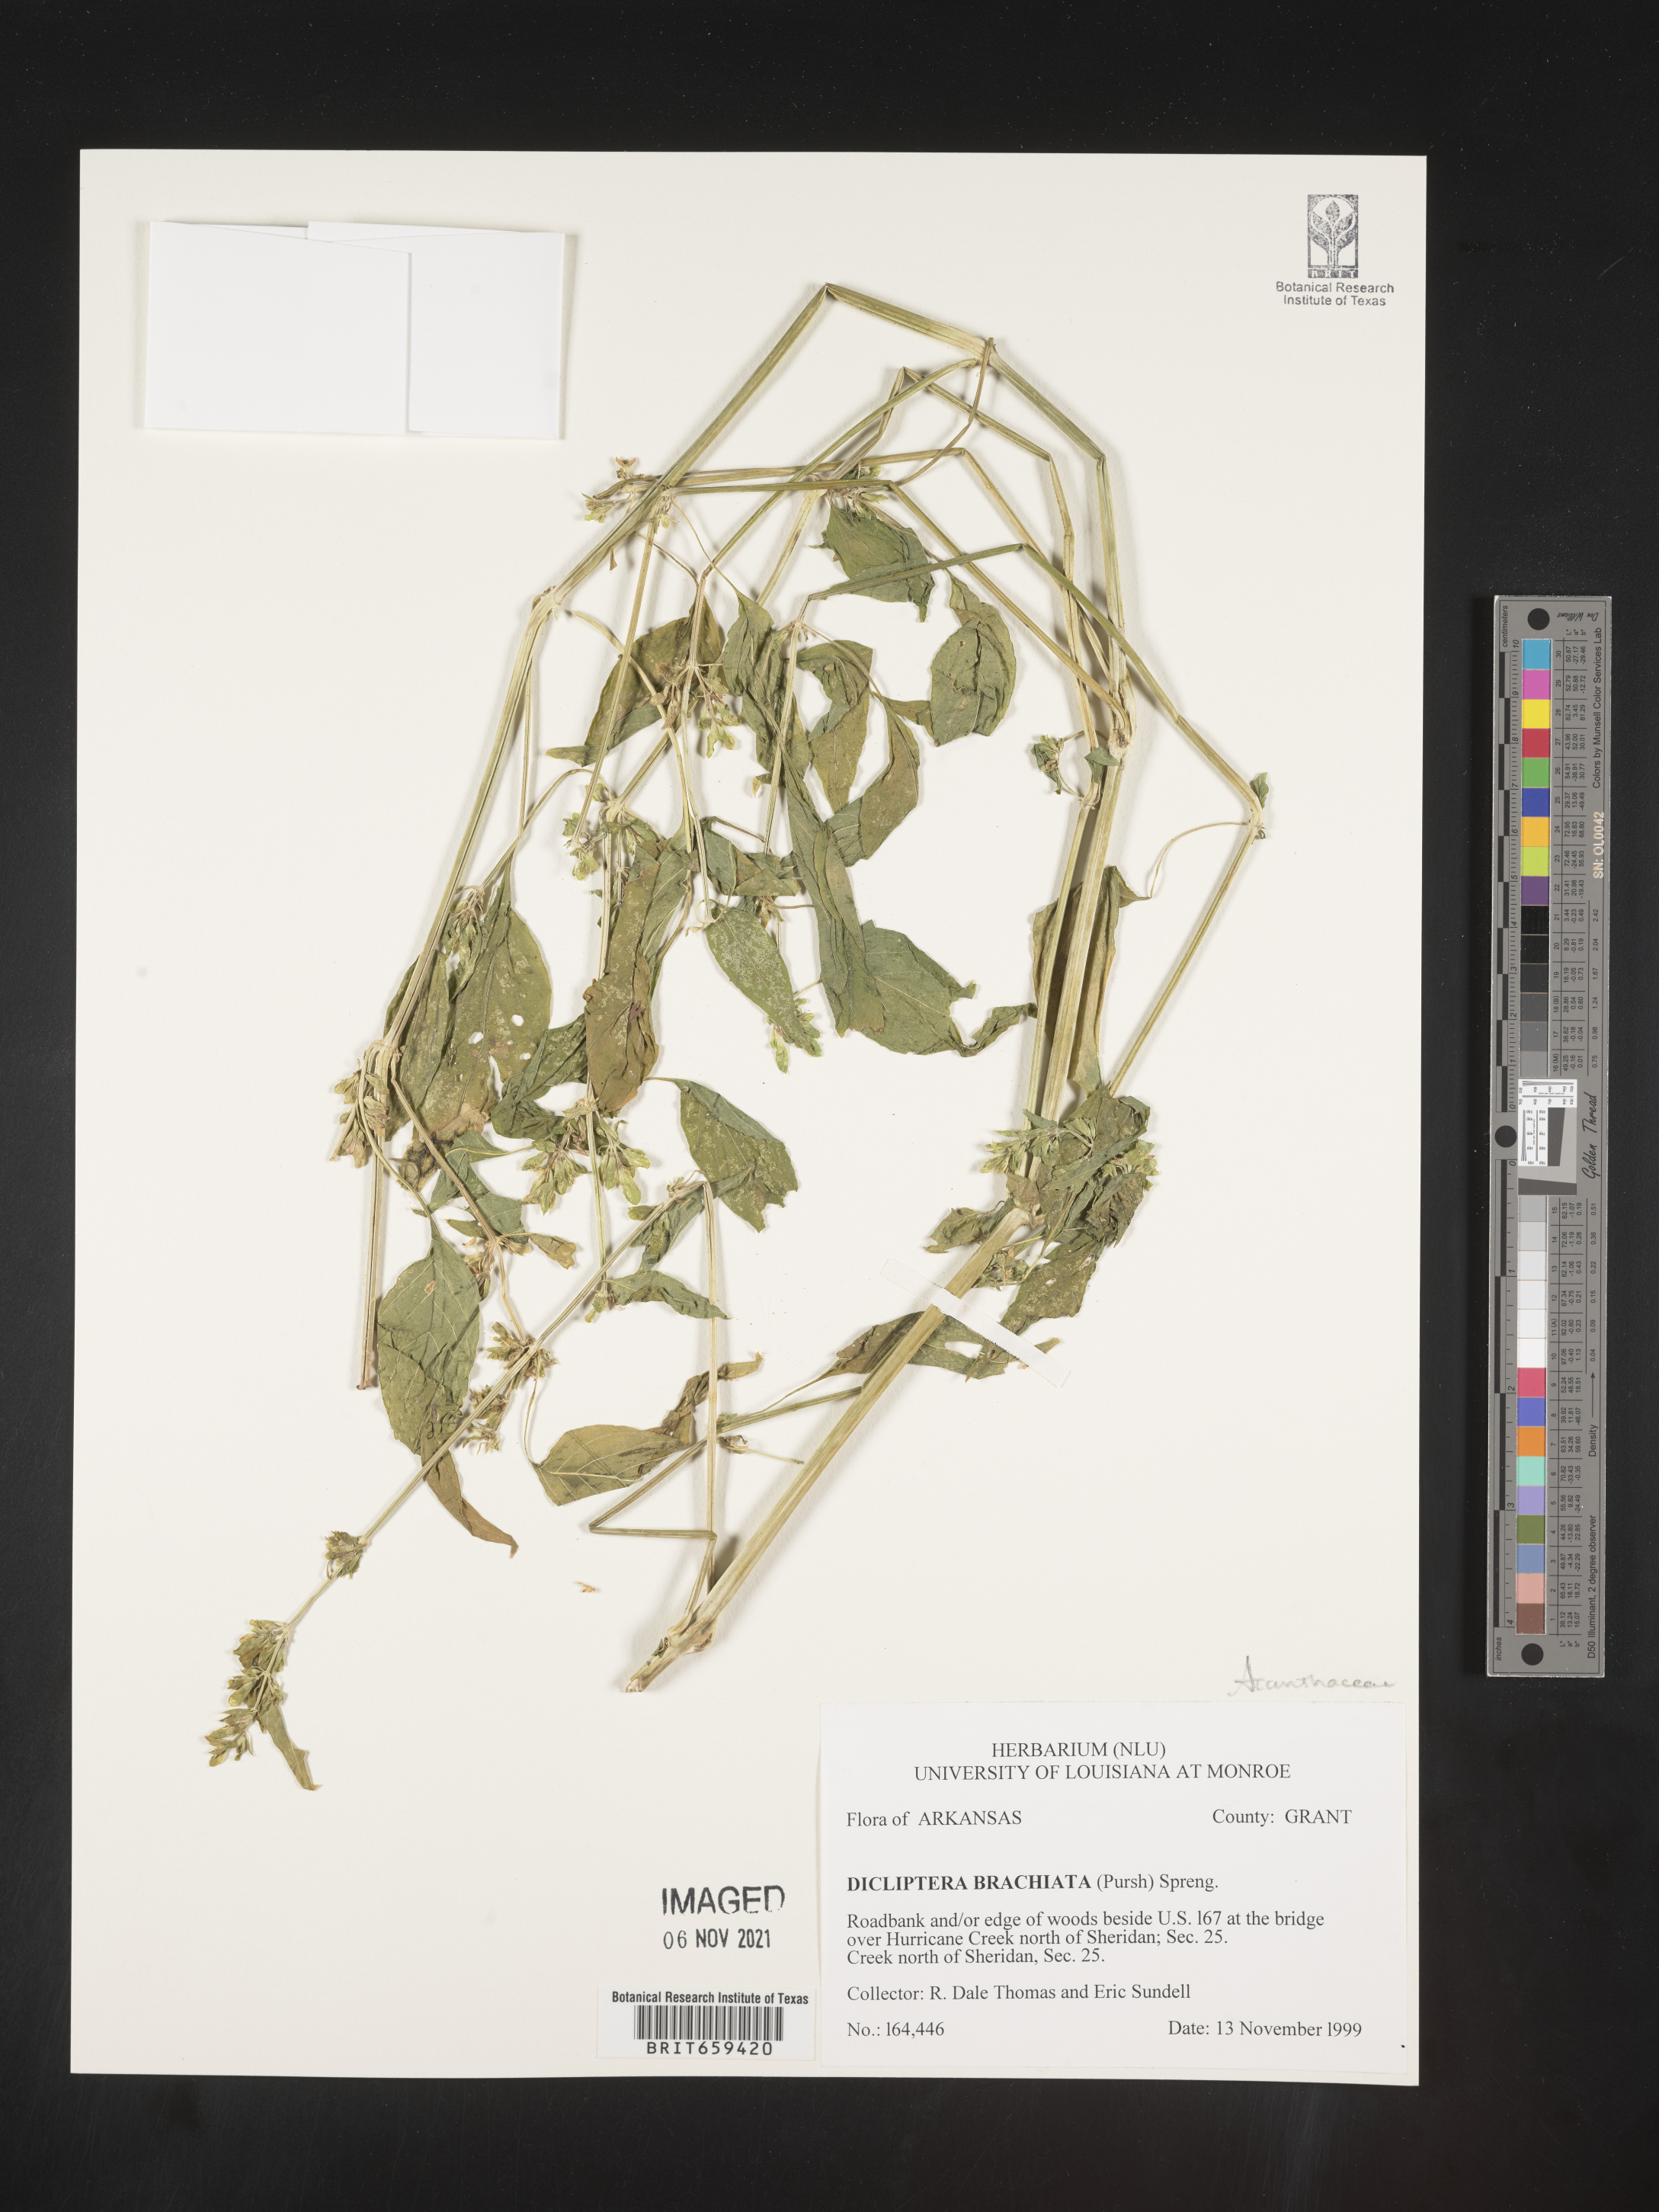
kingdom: Plantae
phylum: Tracheophyta
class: Magnoliopsida
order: Lamiales
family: Acanthaceae
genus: Dicliptera
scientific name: Dicliptera brachiata
